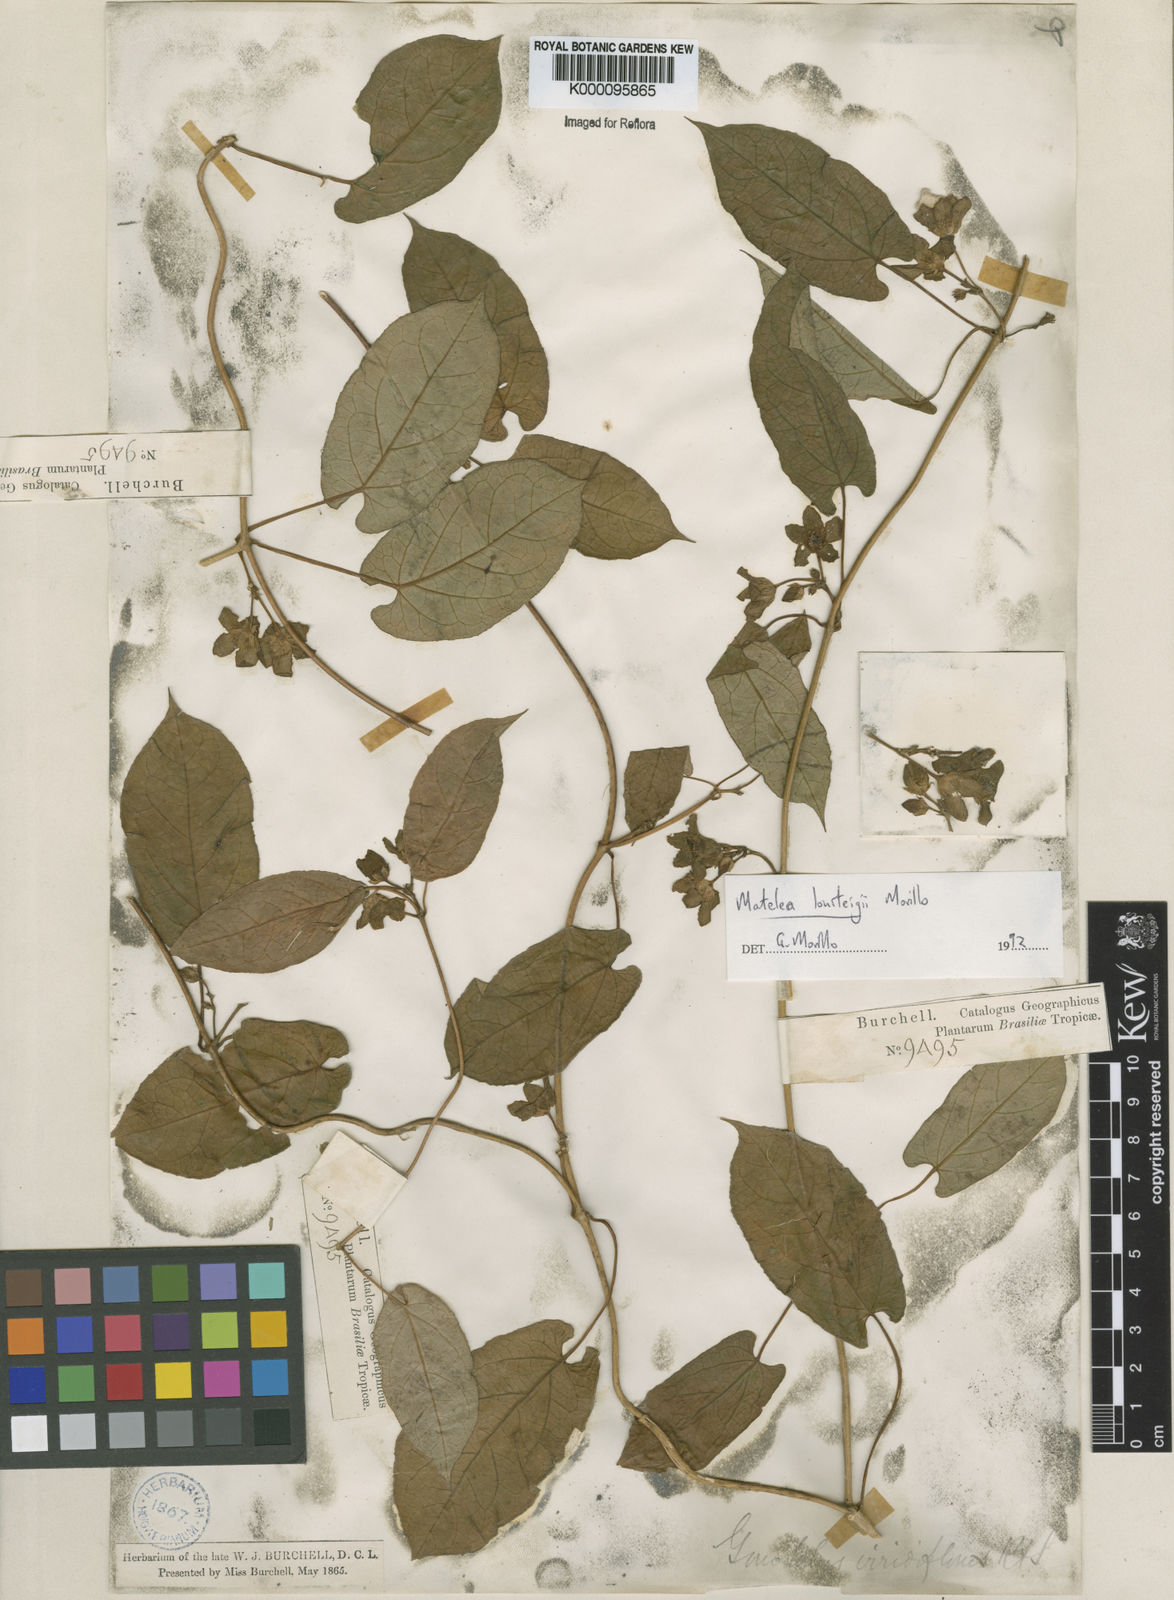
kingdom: Plantae
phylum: Tracheophyta
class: Magnoliopsida
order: Gentianales
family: Apocynaceae
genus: Chloropetalum
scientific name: Chloropetalum surinamense
